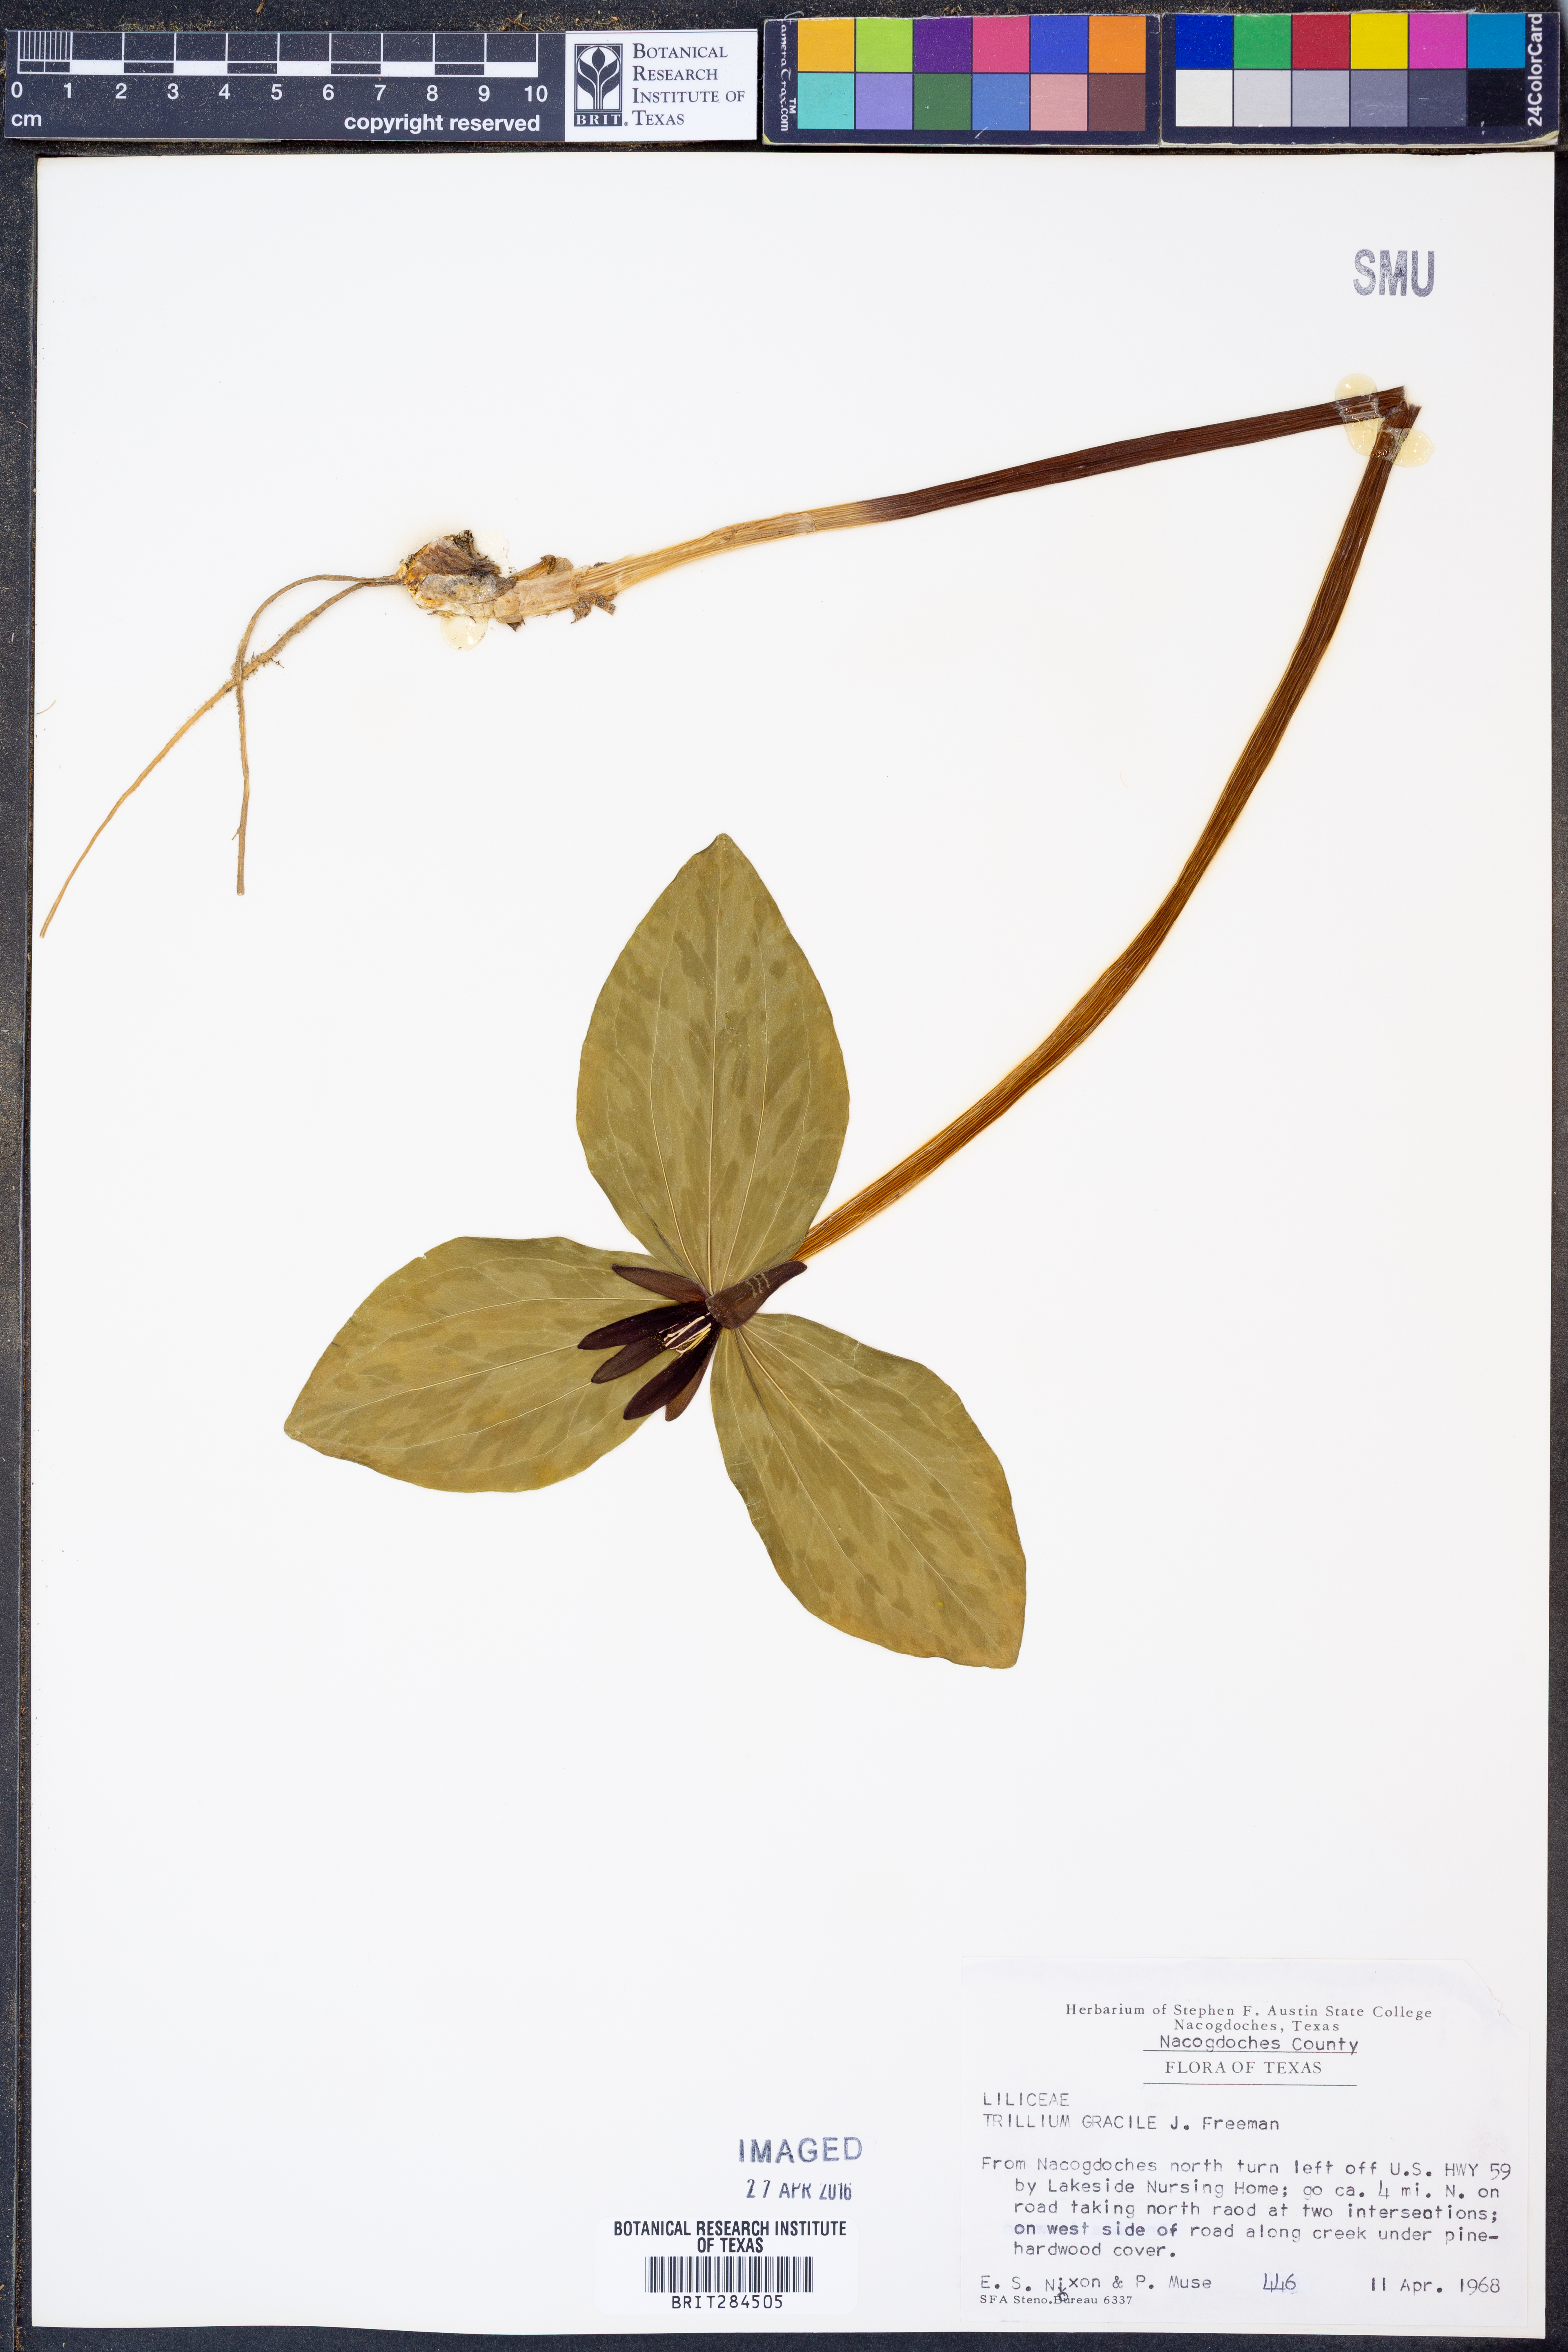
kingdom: Plantae
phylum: Tracheophyta
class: Liliopsida
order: Liliales
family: Melanthiaceae
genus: Trillium
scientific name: Trillium gracile
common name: Graceful trillium
